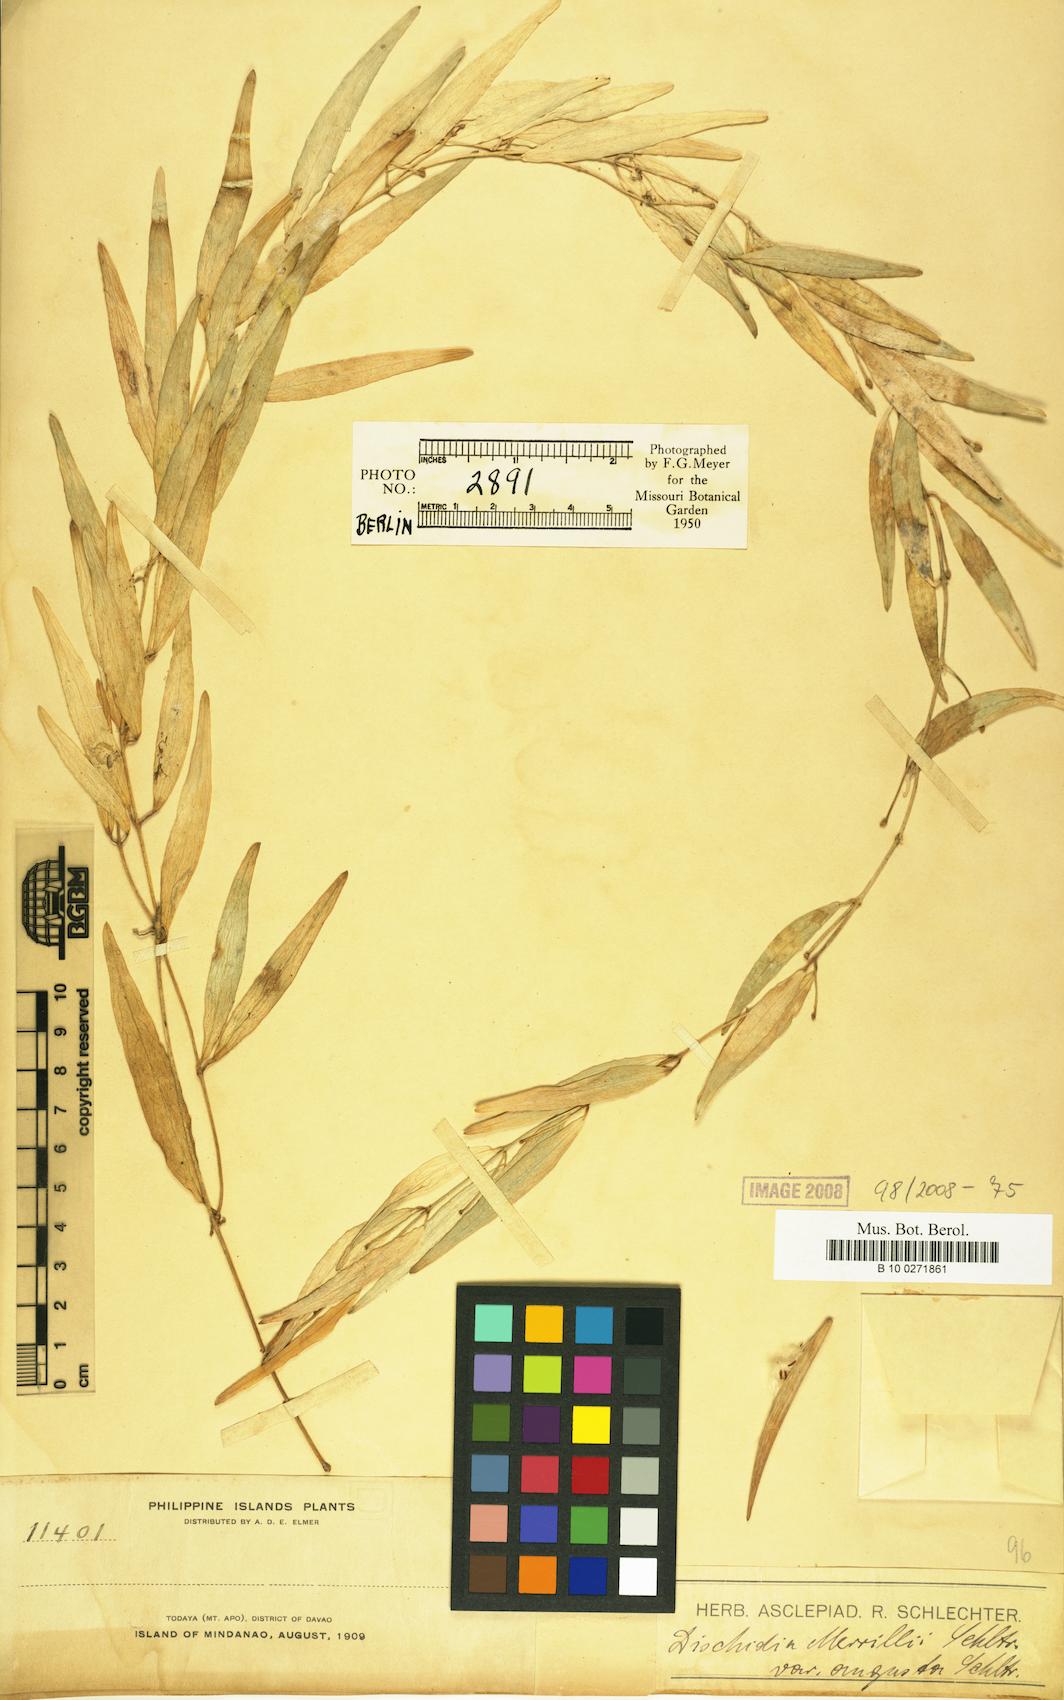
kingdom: Plantae
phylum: Tracheophyta
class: Magnoliopsida
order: Gentianales
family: Apocynaceae
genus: Dischidia
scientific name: Dischidia sylvestris
